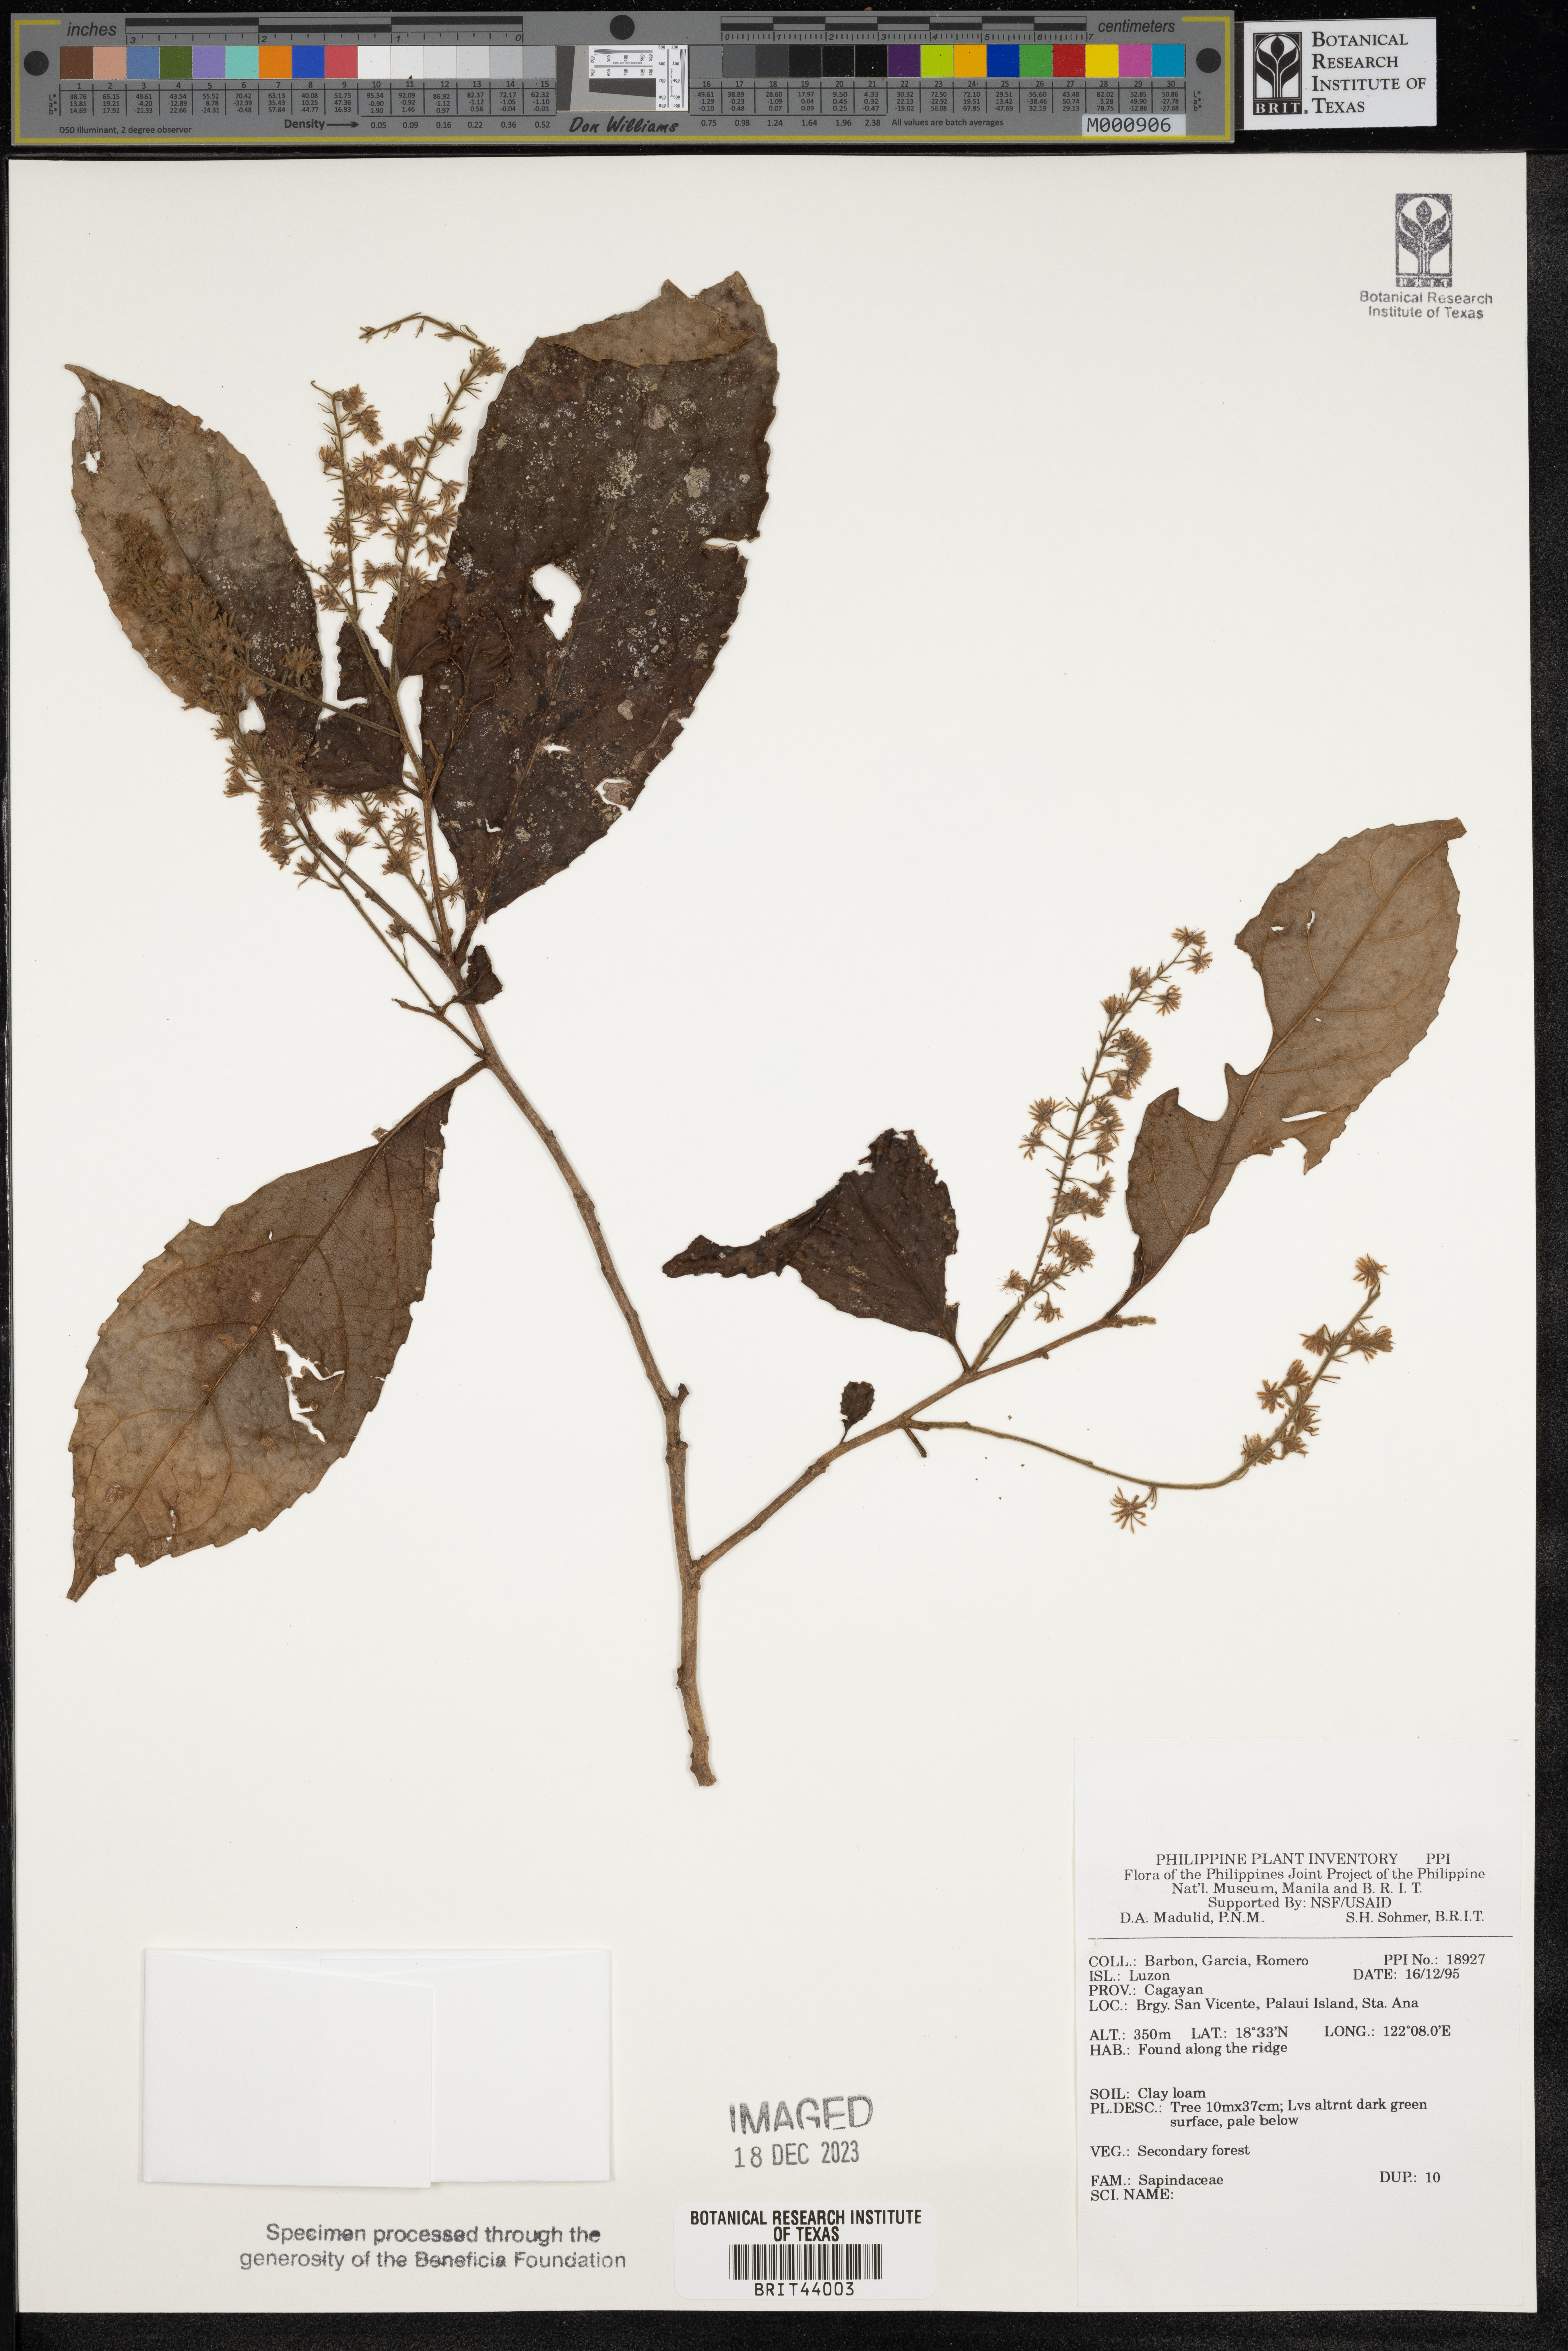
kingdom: Plantae
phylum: Tracheophyta
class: Magnoliopsida
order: Sapindales
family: Sapindaceae
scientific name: Sapindaceae
